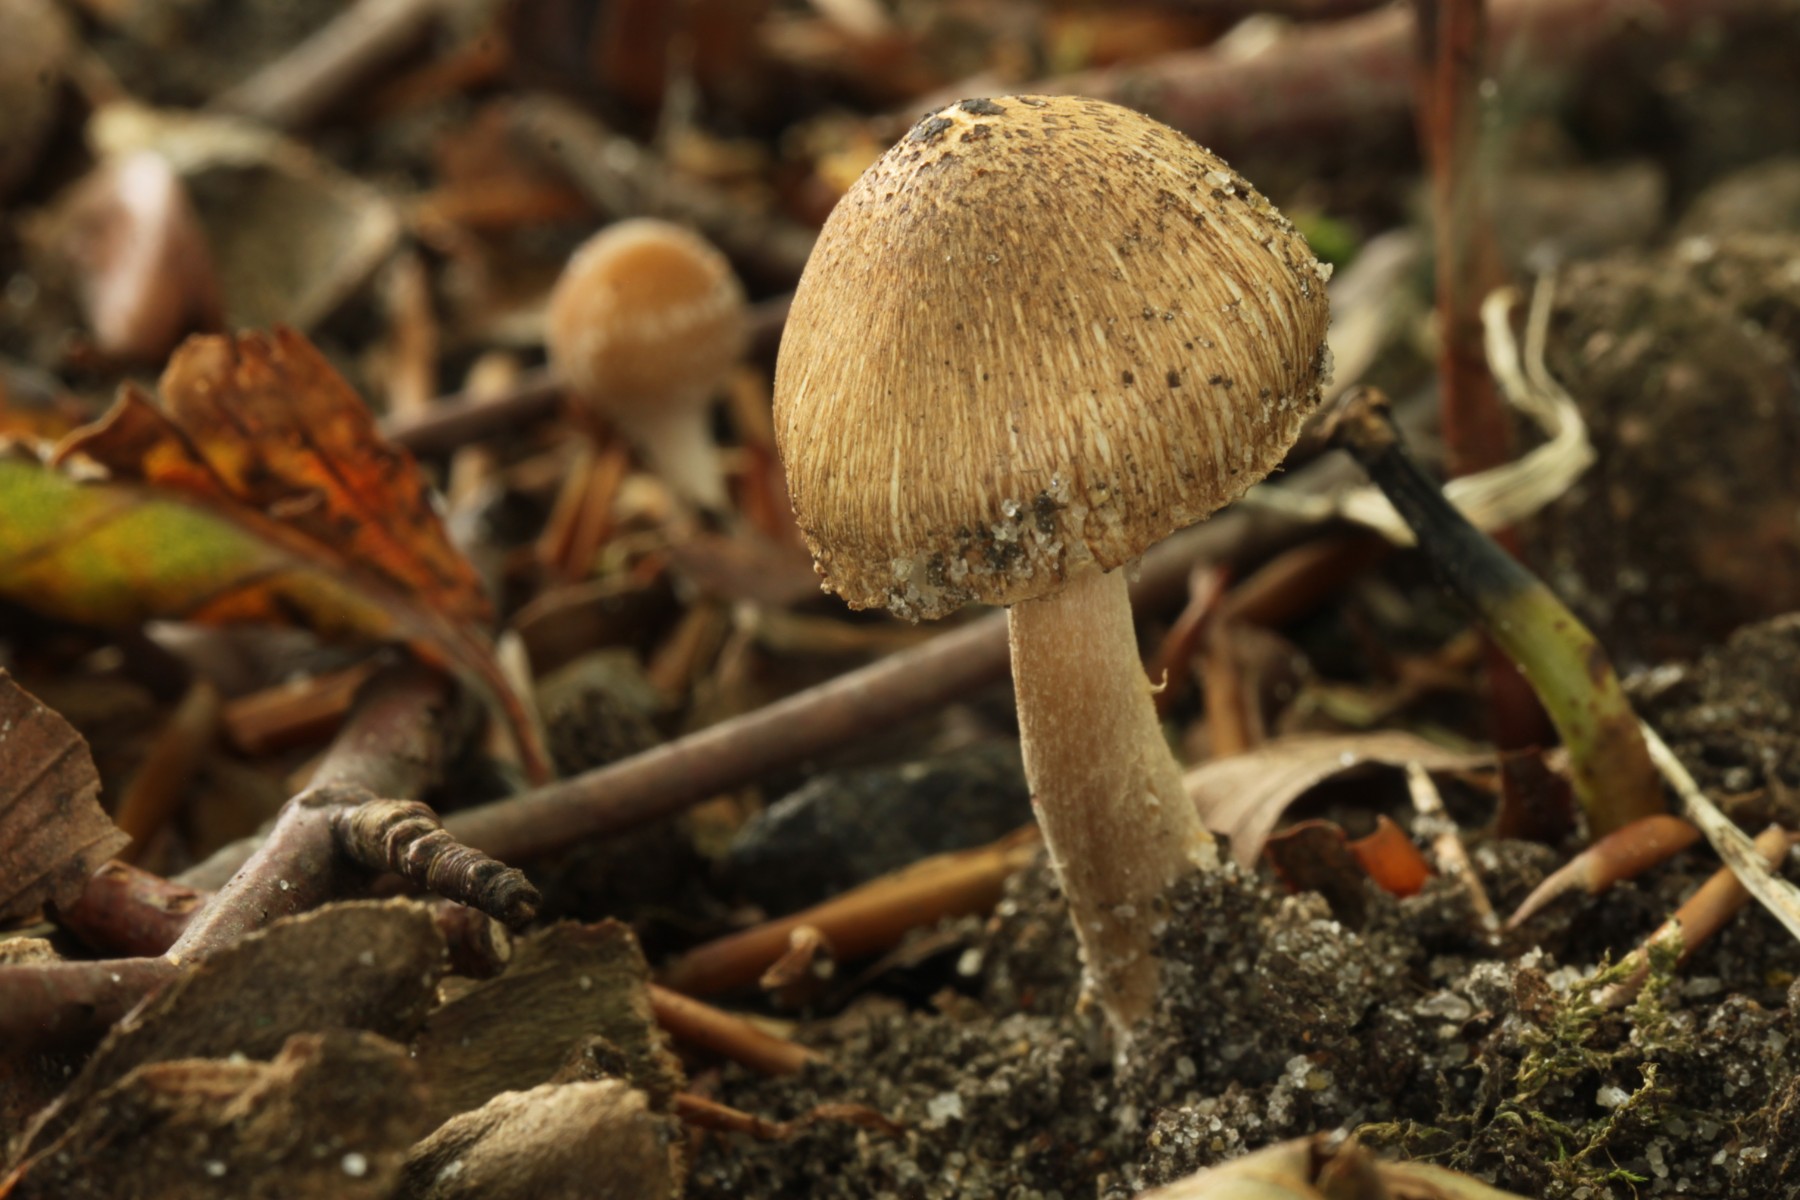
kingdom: Fungi
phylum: Basidiomycota
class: Agaricomycetes
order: Agaricales
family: Inocybaceae
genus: Inocybe
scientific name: Inocybe
